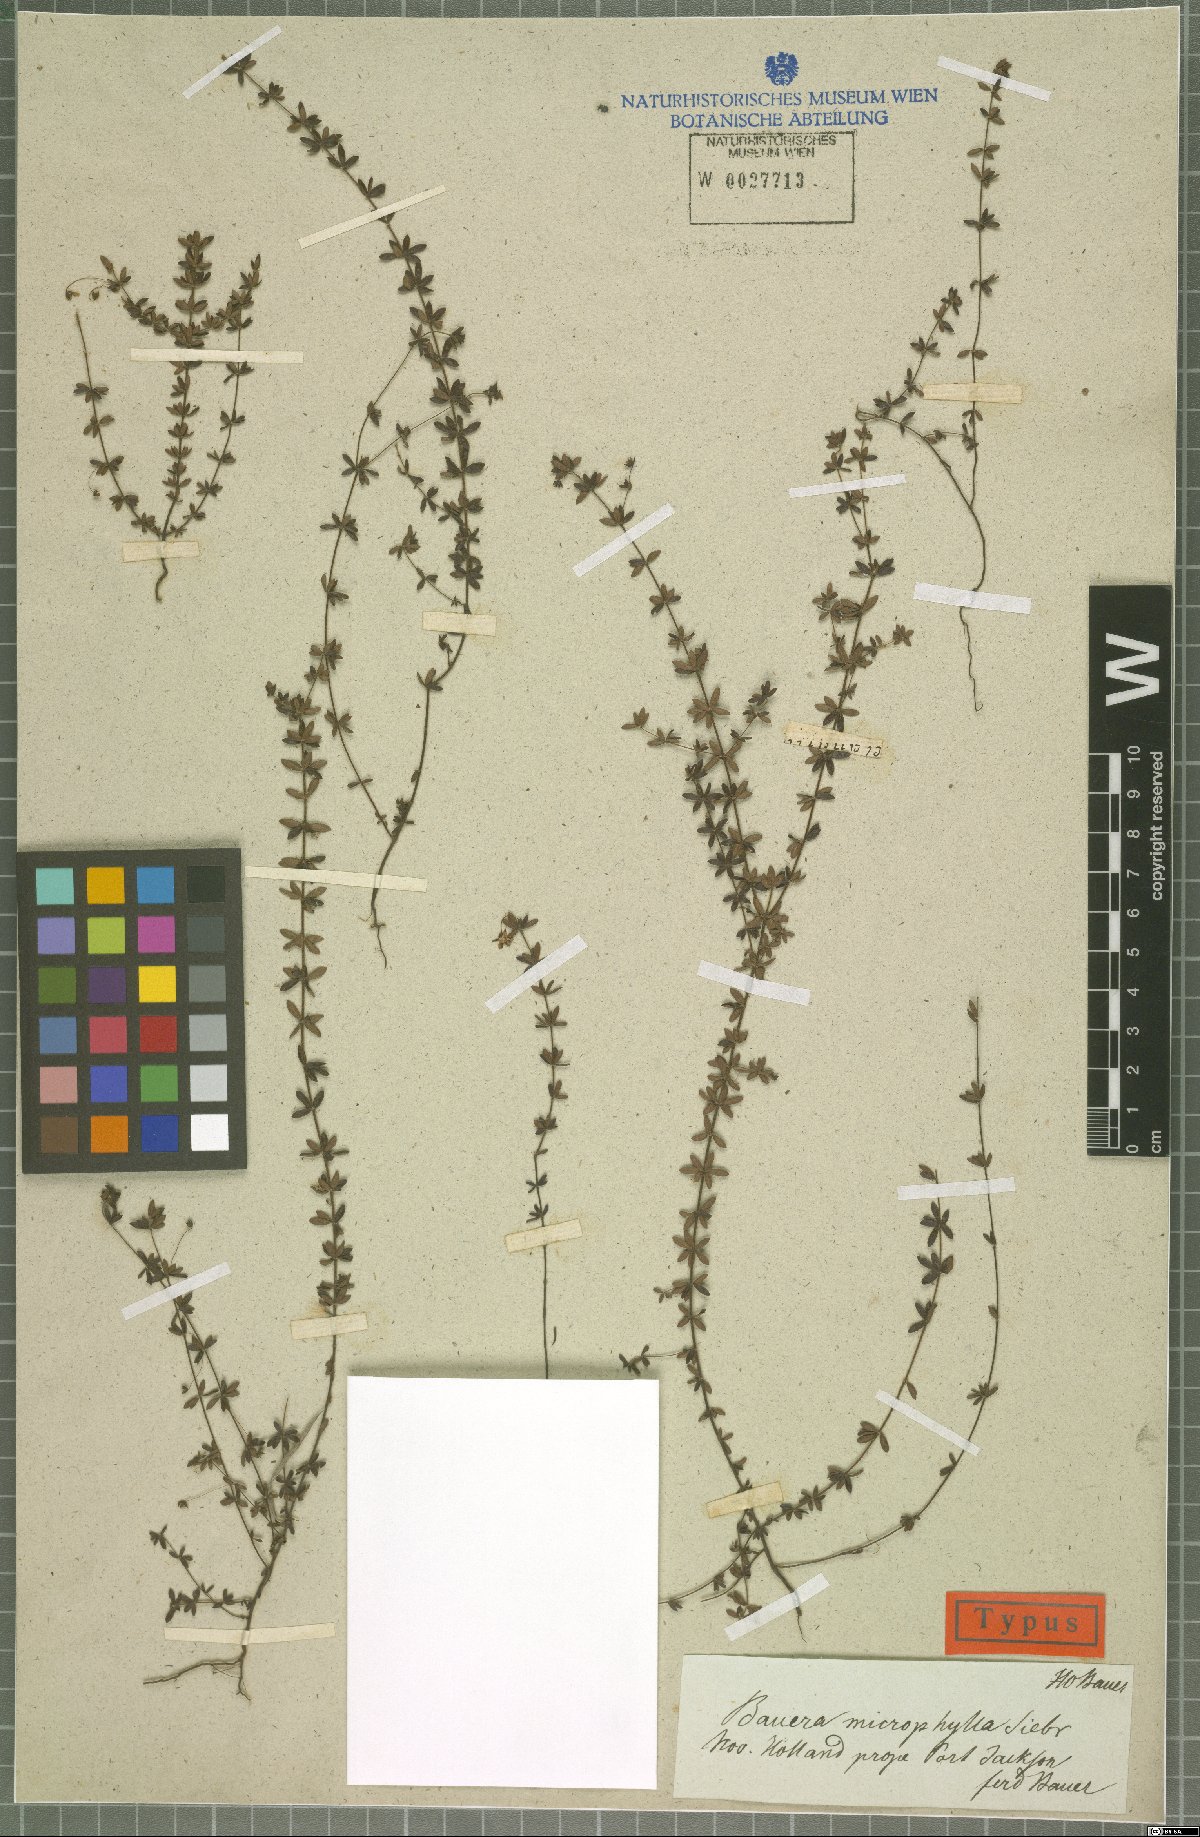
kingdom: Plantae
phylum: Tracheophyta
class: Magnoliopsida
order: Oxalidales
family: Cunoniaceae
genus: Bauera
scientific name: Bauera rubioides
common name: River-rose
